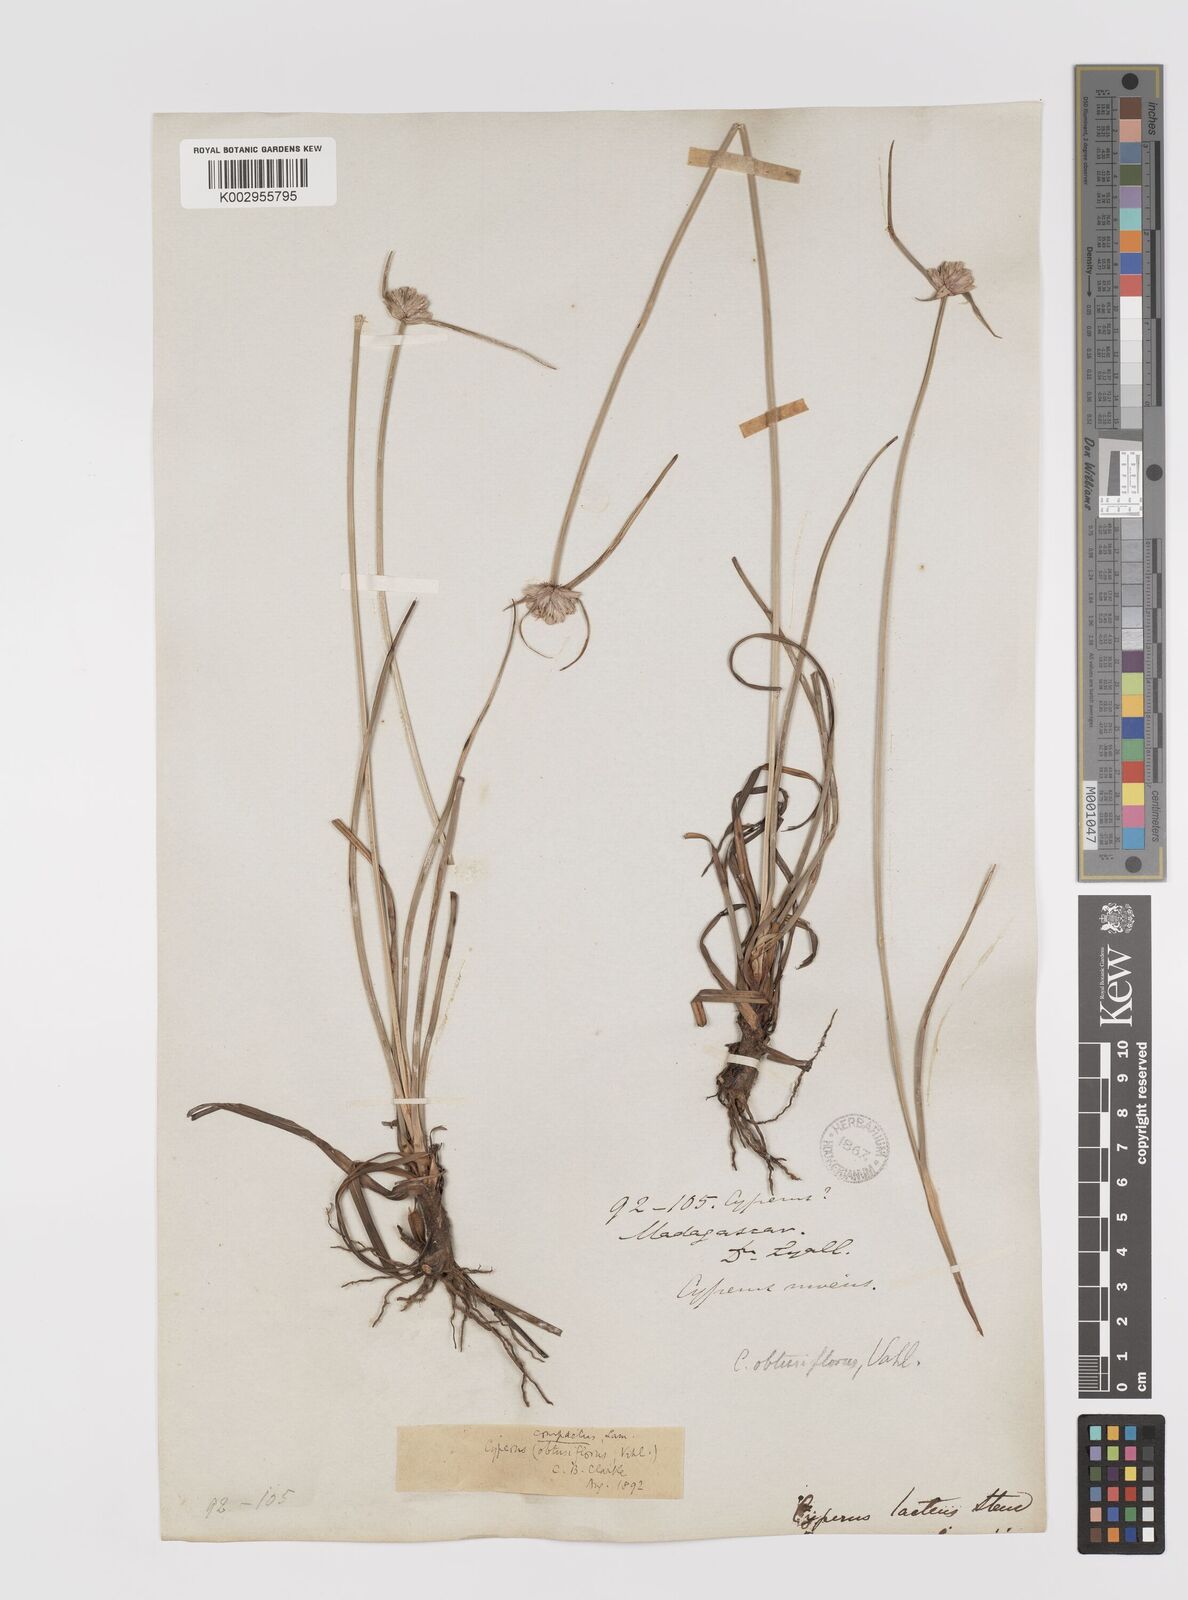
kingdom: Plantae
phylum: Tracheophyta
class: Liliopsida
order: Poales
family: Cyperaceae
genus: Cyperus
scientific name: Cyperus niveus
